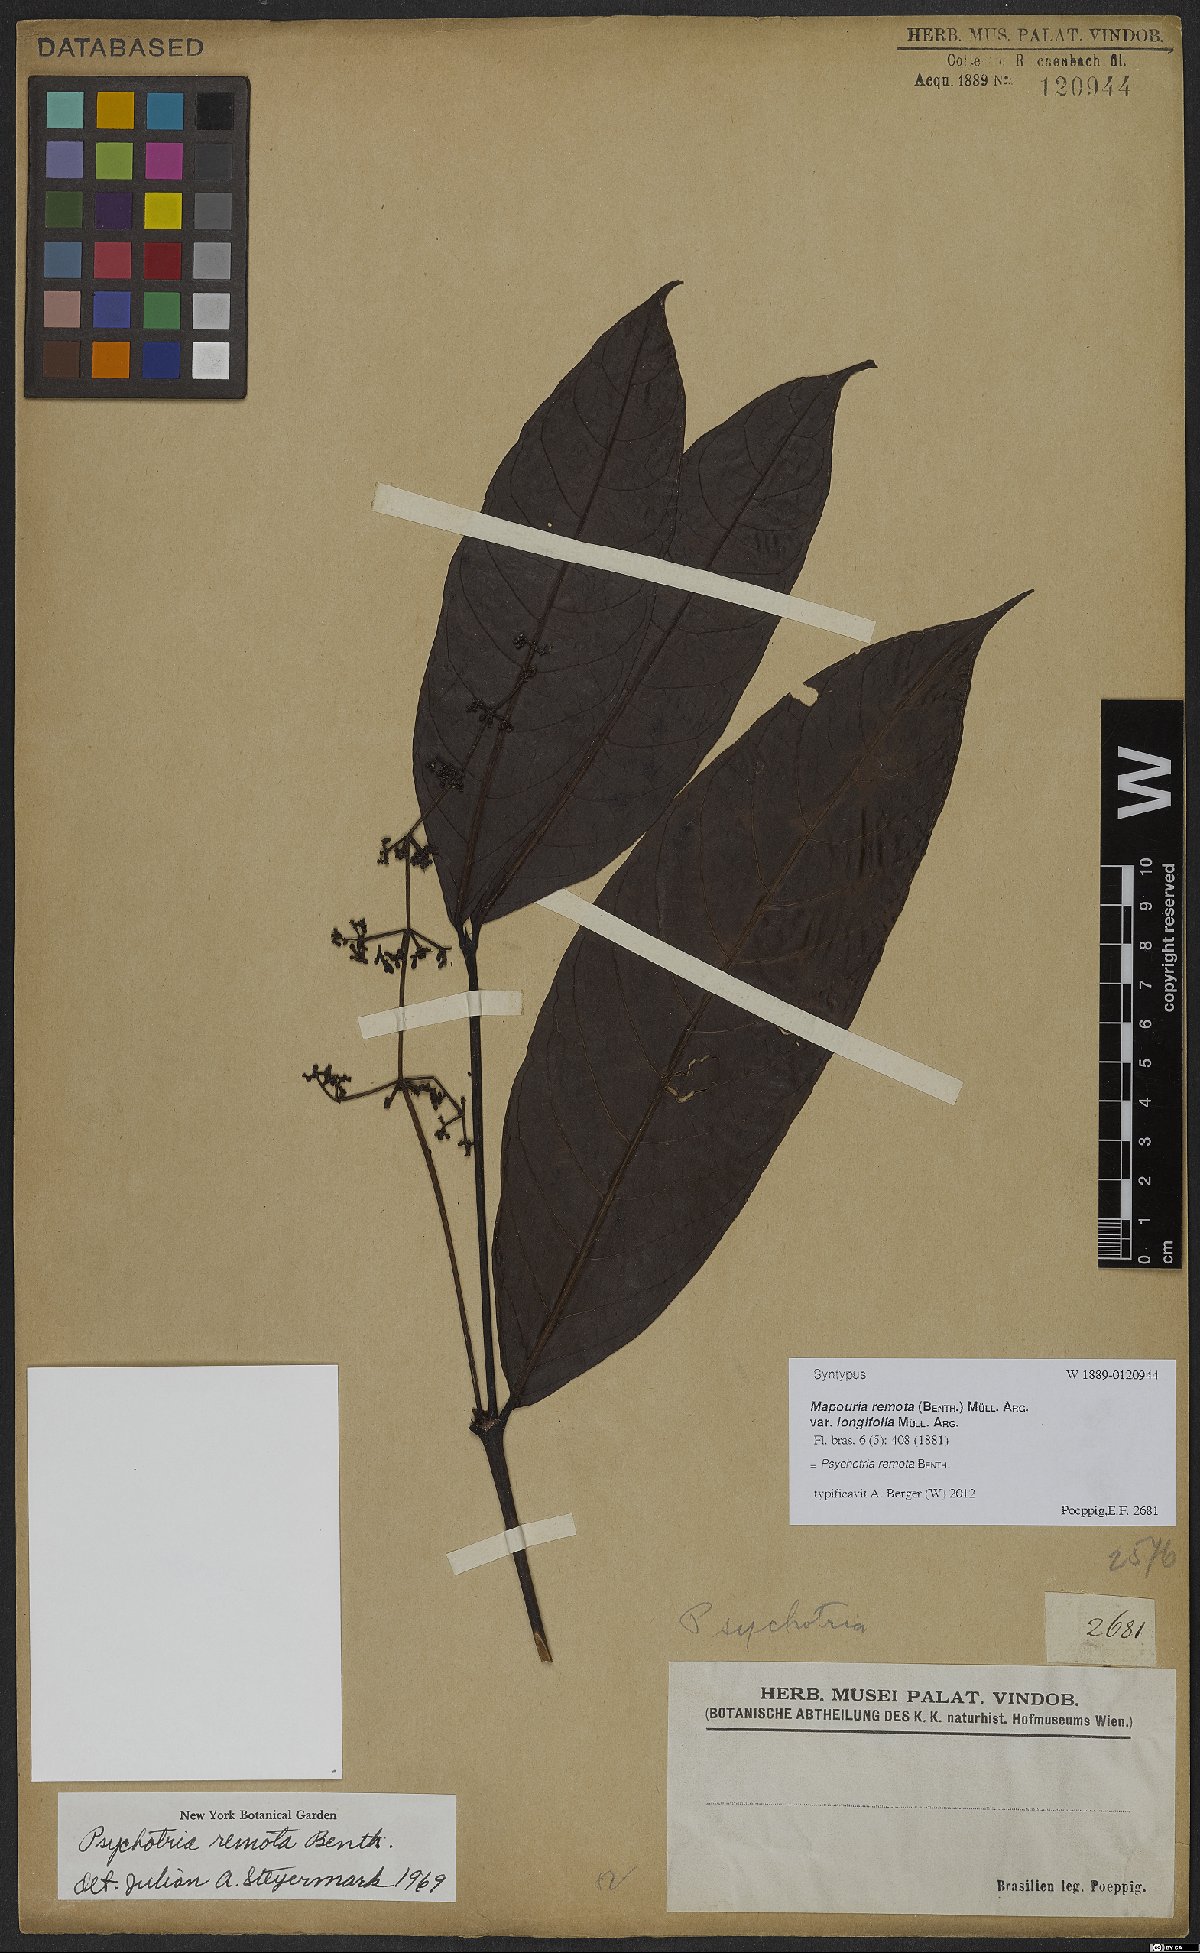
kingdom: Plantae
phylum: Tracheophyta
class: Magnoliopsida
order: Gentianales
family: Rubiaceae
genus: Psychotria
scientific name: Psychotria remota
